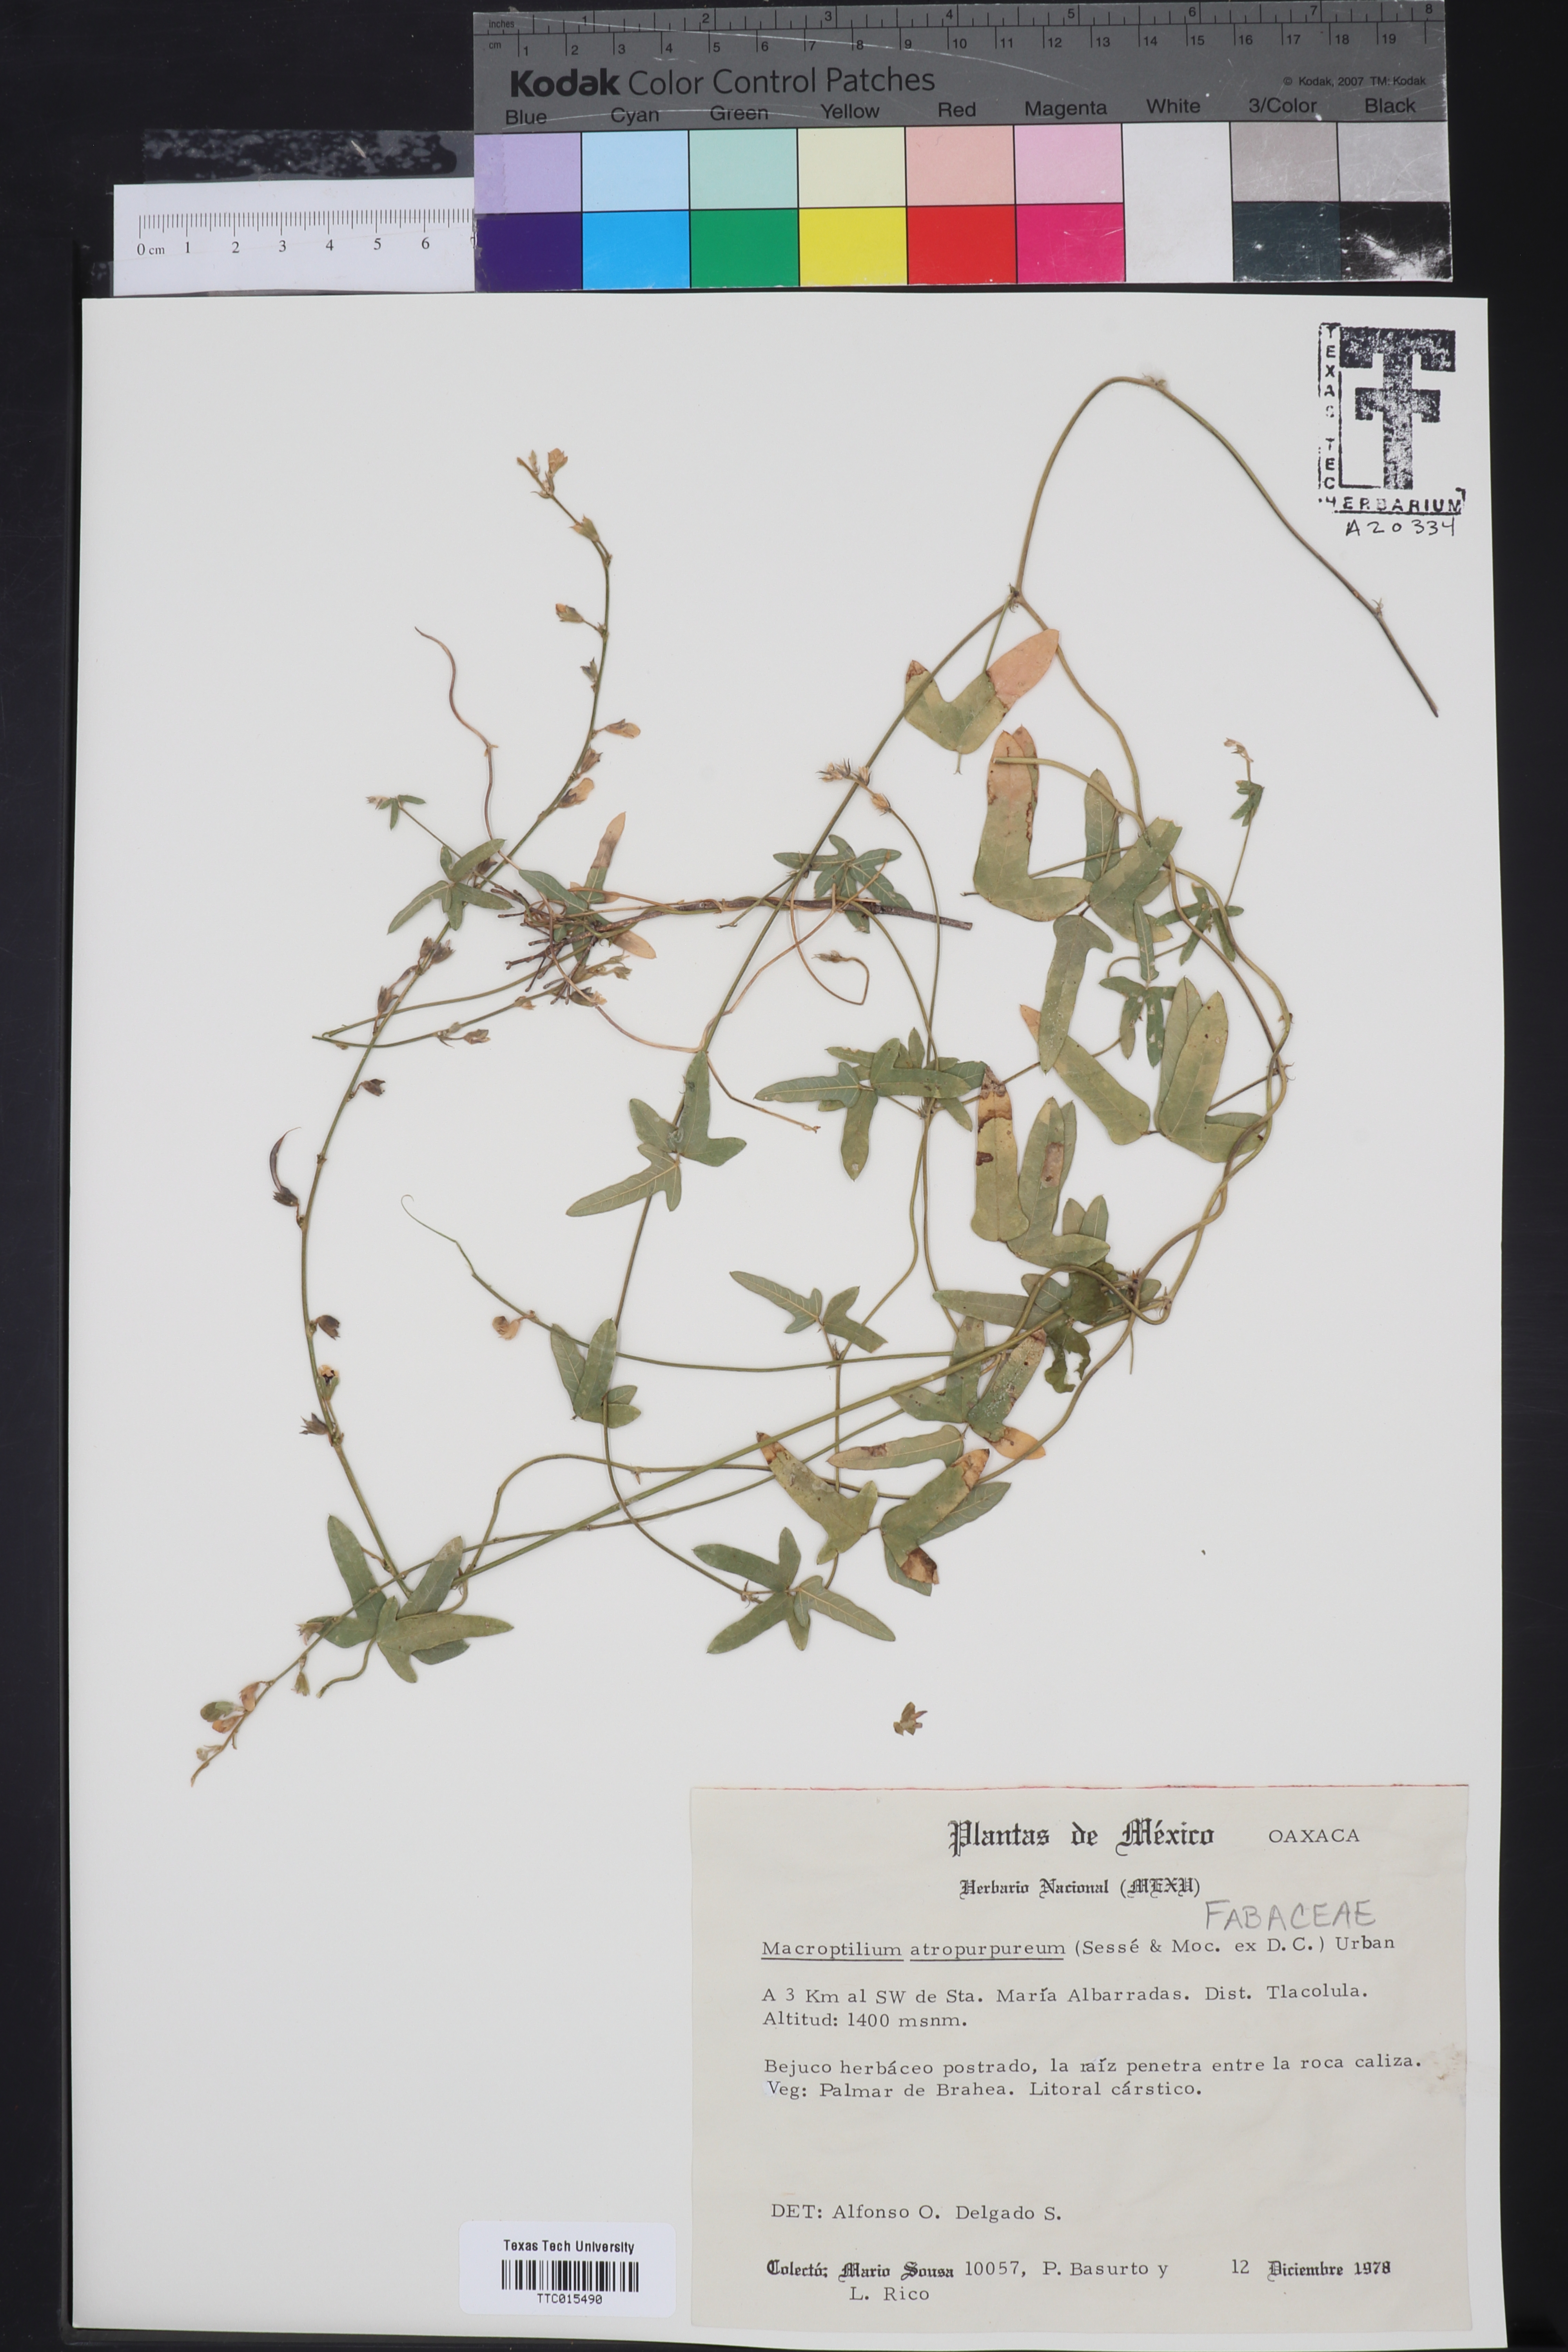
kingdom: Plantae
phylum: Tracheophyta
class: Magnoliopsida
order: Fabales
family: Fabaceae
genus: Macroptilium
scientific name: Macroptilium atropurpureum
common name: Purple bushbean
